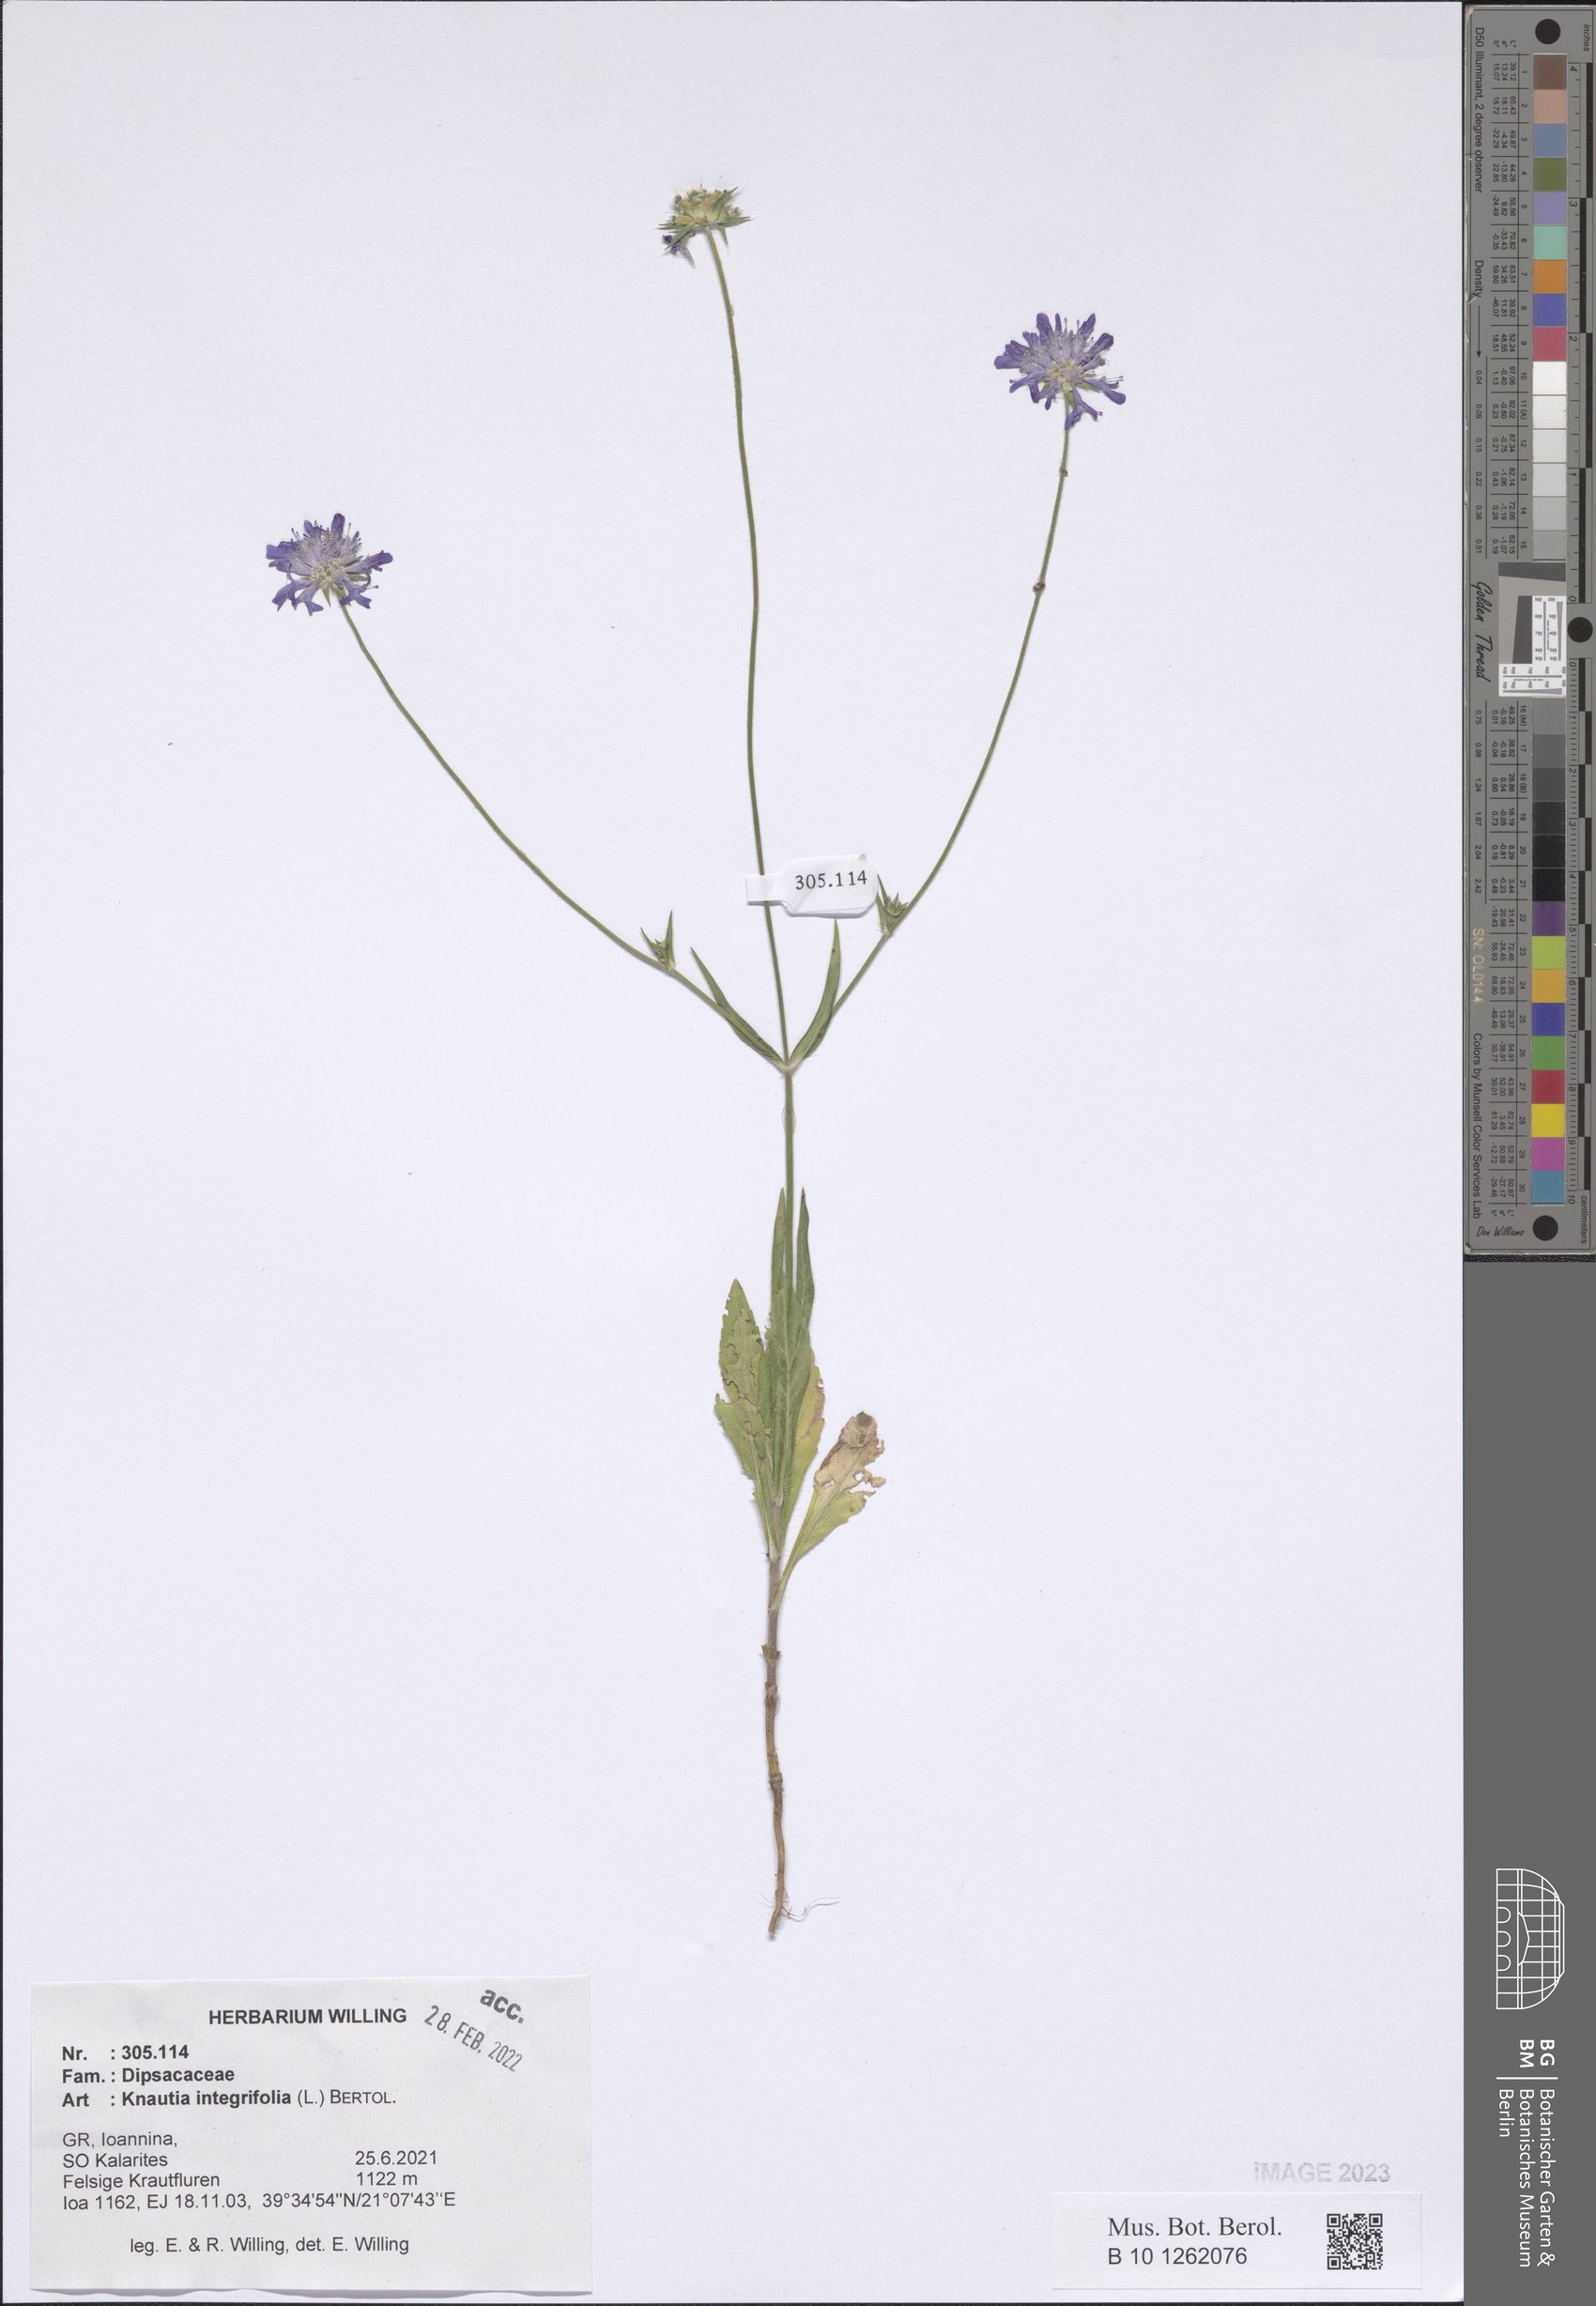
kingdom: Plantae
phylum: Tracheophyta
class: Magnoliopsida
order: Dipsacales
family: Caprifoliaceae
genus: Knautia
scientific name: Knautia integrifolia
